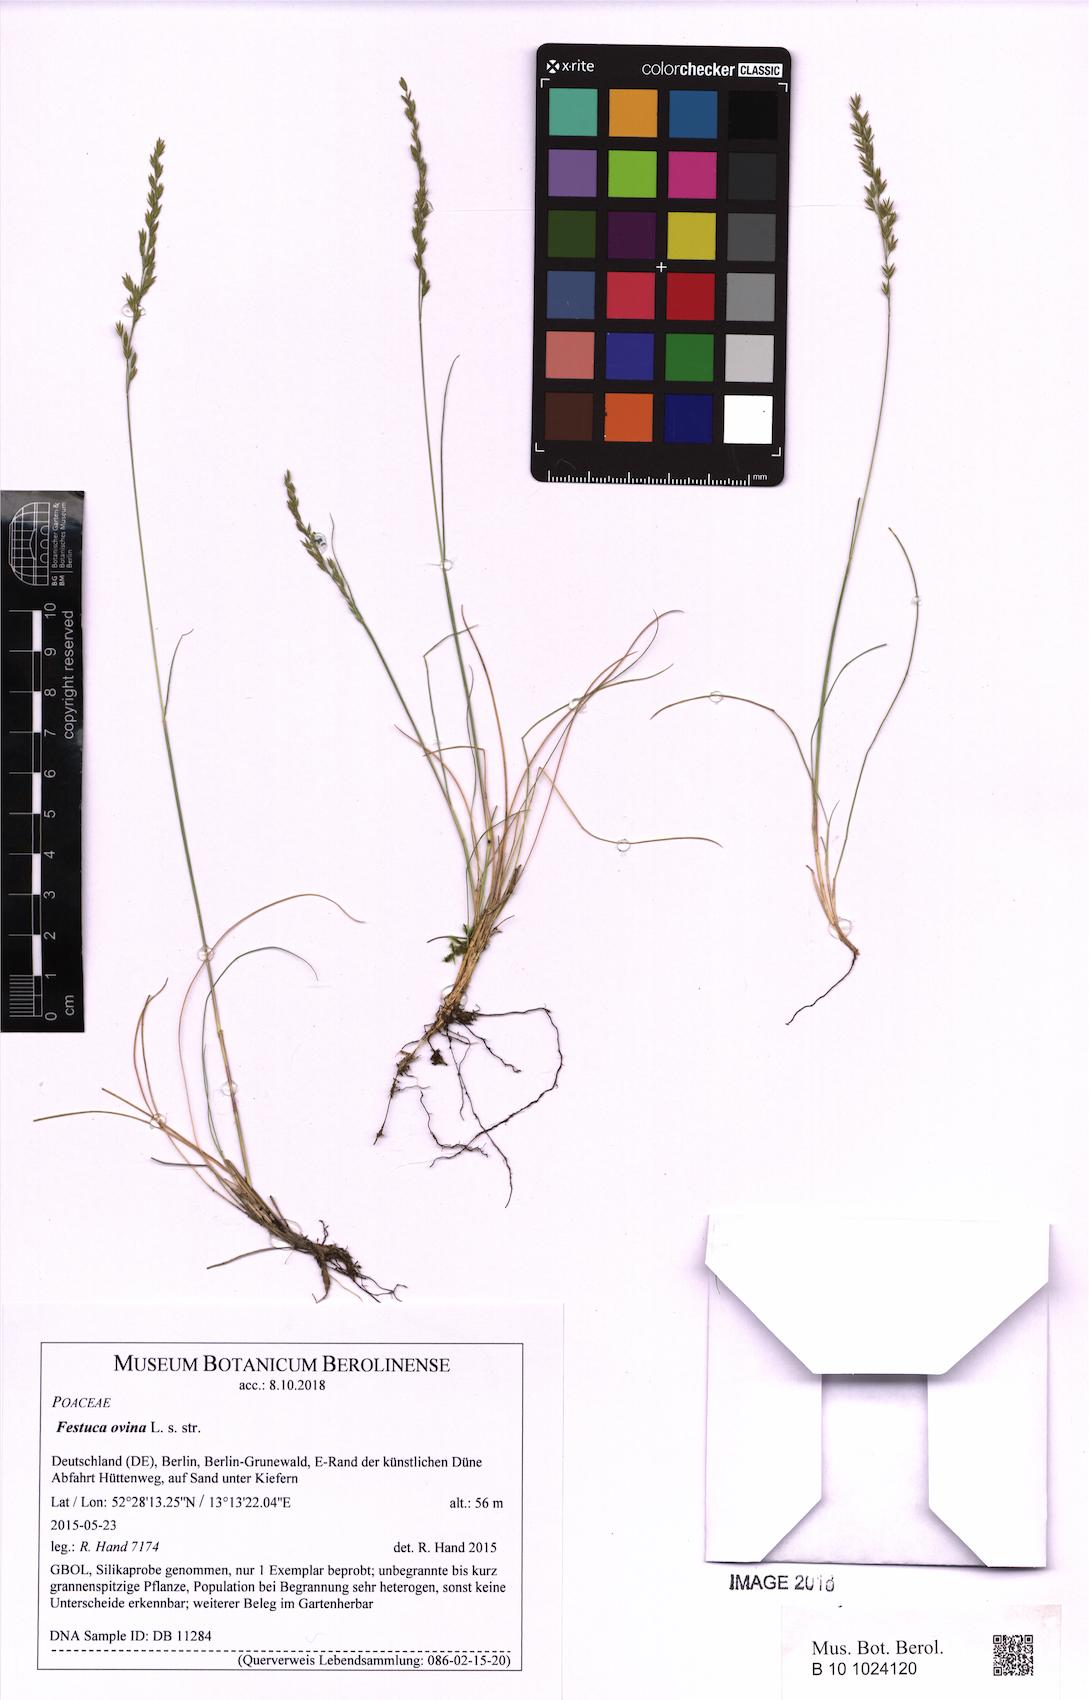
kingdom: Plantae
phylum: Tracheophyta
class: Liliopsida
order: Poales
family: Poaceae
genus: Festuca
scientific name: Festuca ovina
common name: Sheep fescue
